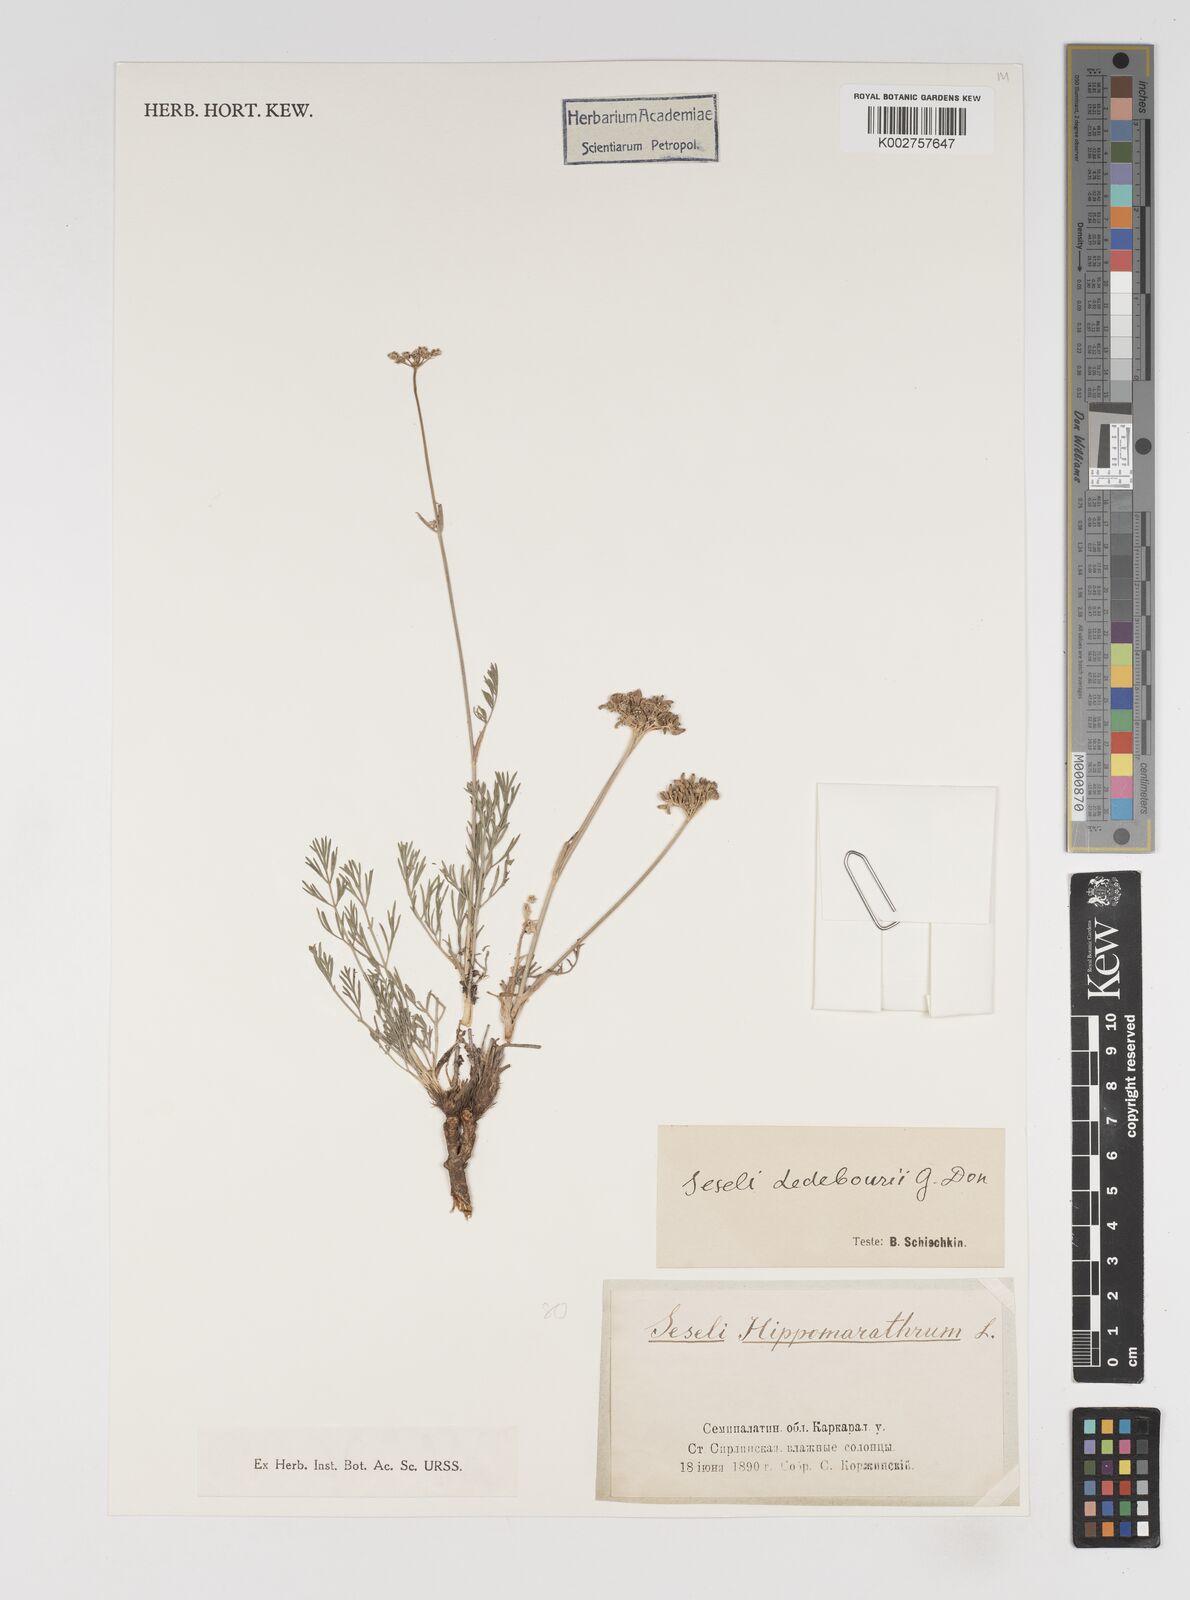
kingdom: Plantae
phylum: Tracheophyta
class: Magnoliopsida
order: Apiales
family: Apiaceae
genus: Hippomarathrum
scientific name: Hippomarathrum ledebourii
